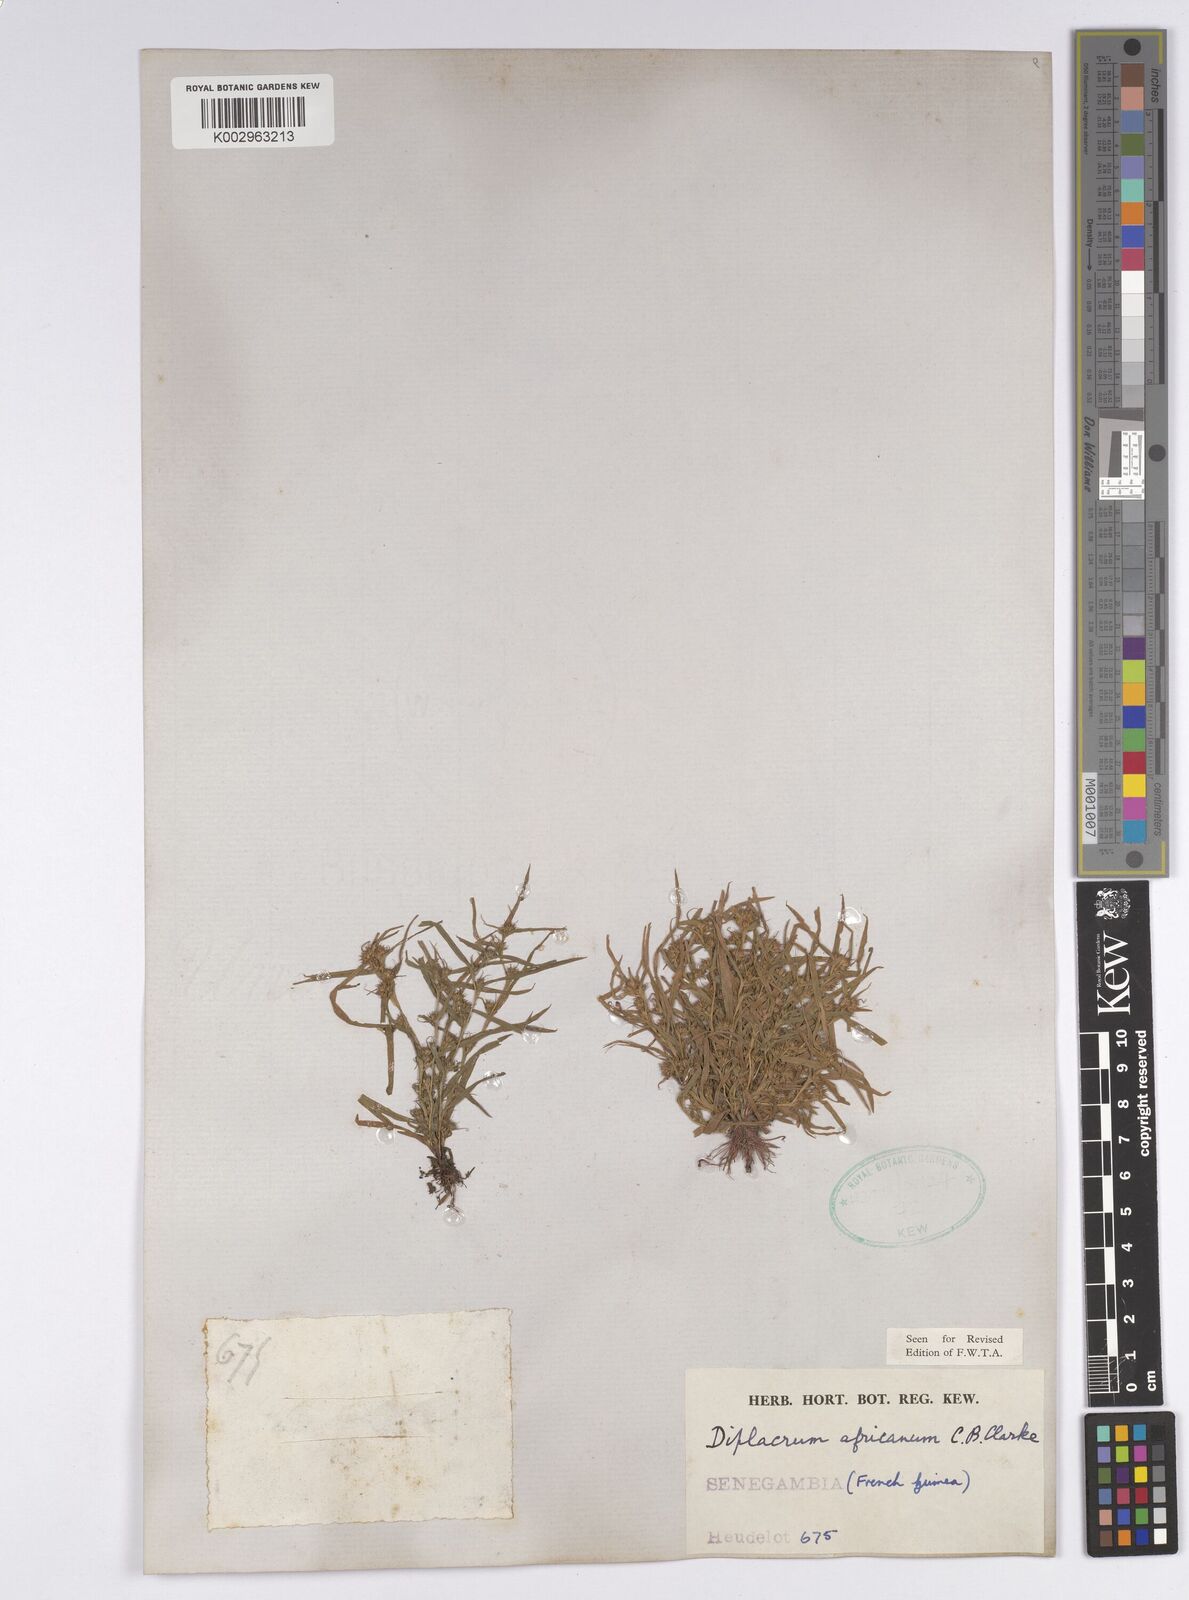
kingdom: Plantae
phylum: Tracheophyta
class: Liliopsida
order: Poales
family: Cyperaceae
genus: Diplacrum
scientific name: Diplacrum africanum
